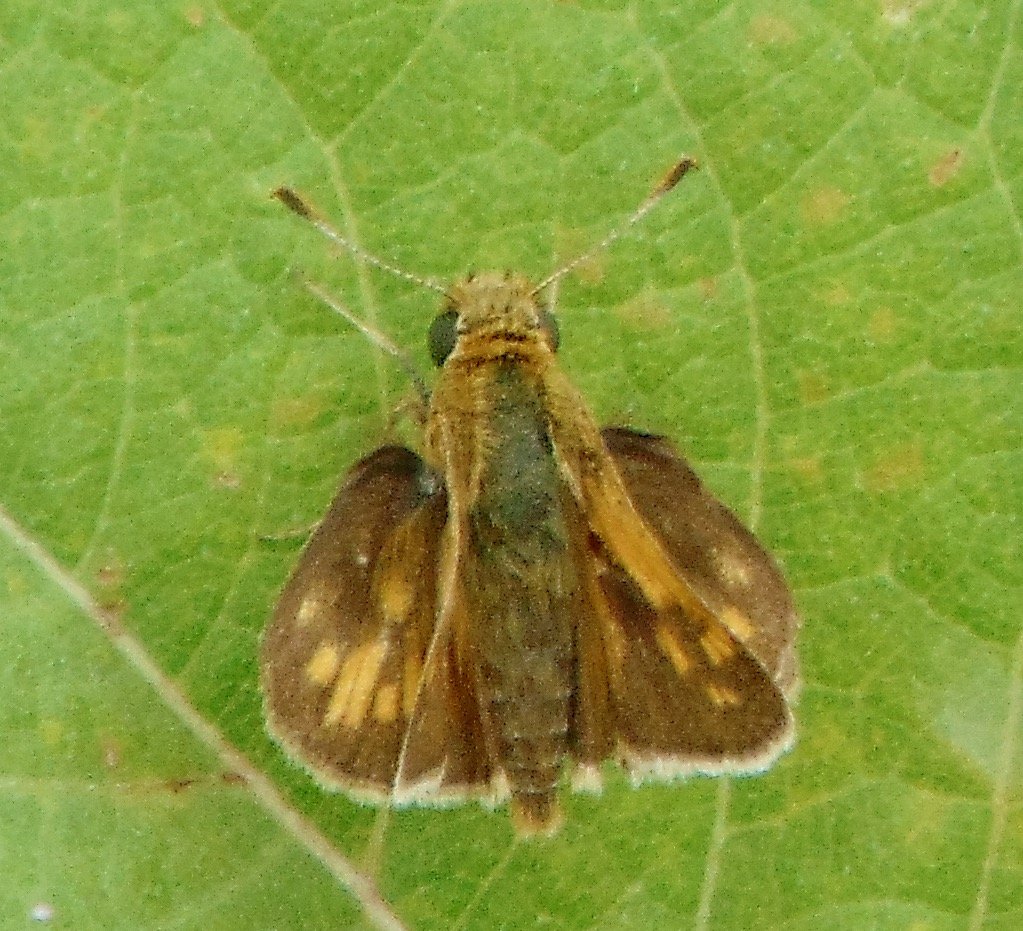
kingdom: Animalia
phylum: Arthropoda
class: Insecta
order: Lepidoptera
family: Hesperiidae
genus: Polites
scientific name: Polites coras
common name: Peck's Skipper
